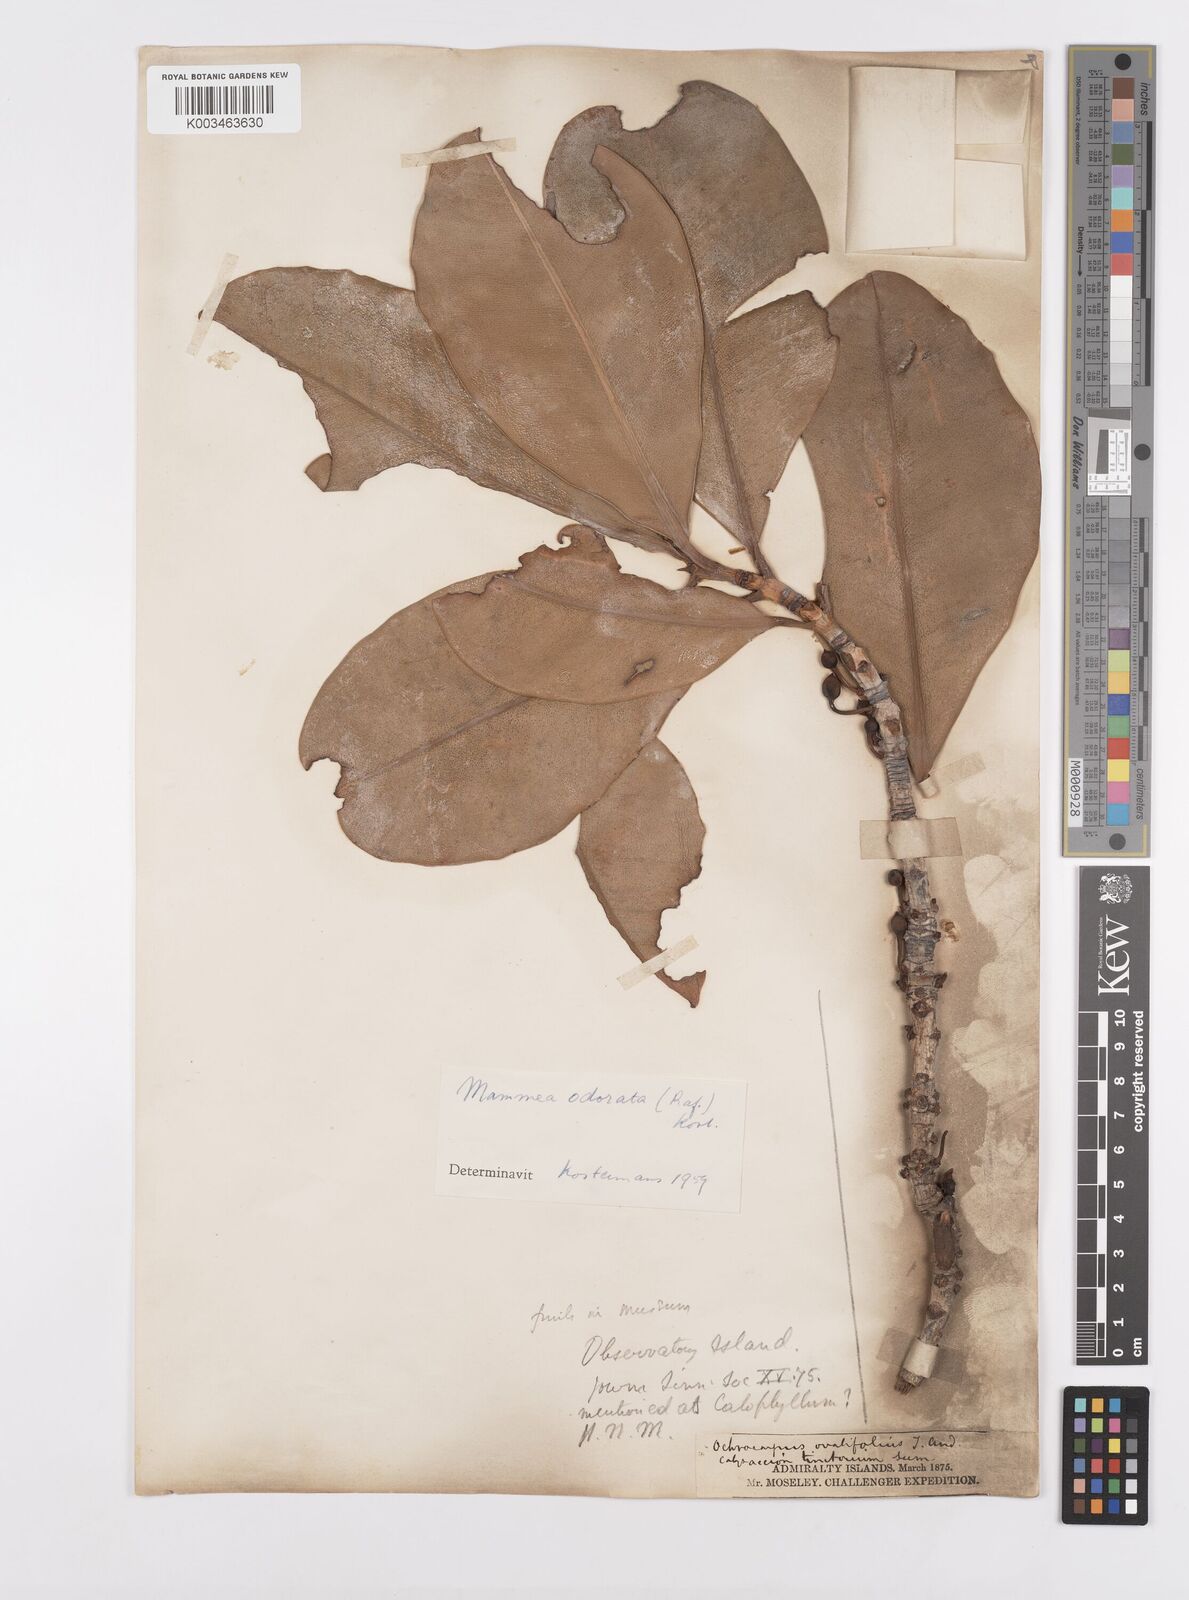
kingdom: Plantae
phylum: Tracheophyta
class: Magnoliopsida
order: Malpighiales
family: Calophyllaceae
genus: Mammea
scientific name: Mammea odorata
